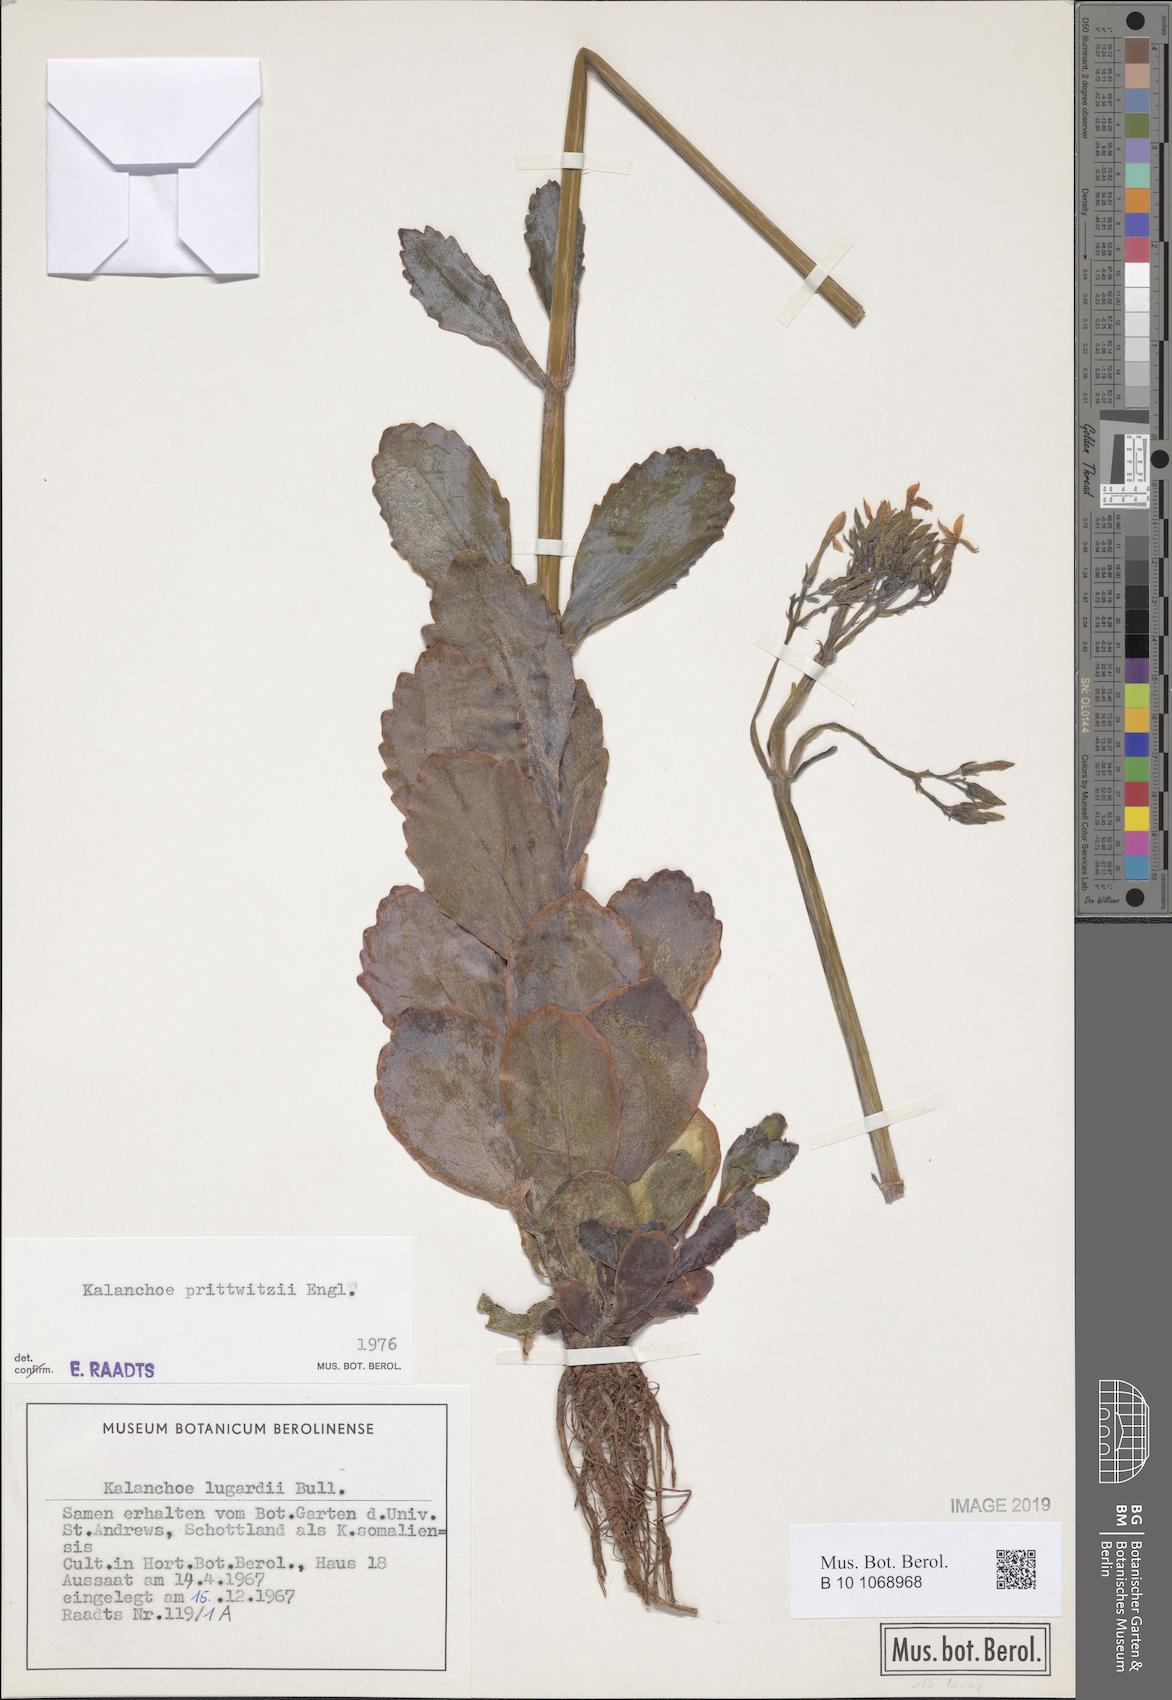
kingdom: Plantae
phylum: Tracheophyta
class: Magnoliopsida
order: Saxifragales
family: Crassulaceae
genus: Kalanchoe
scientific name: Kalanchoe prittwitzii
